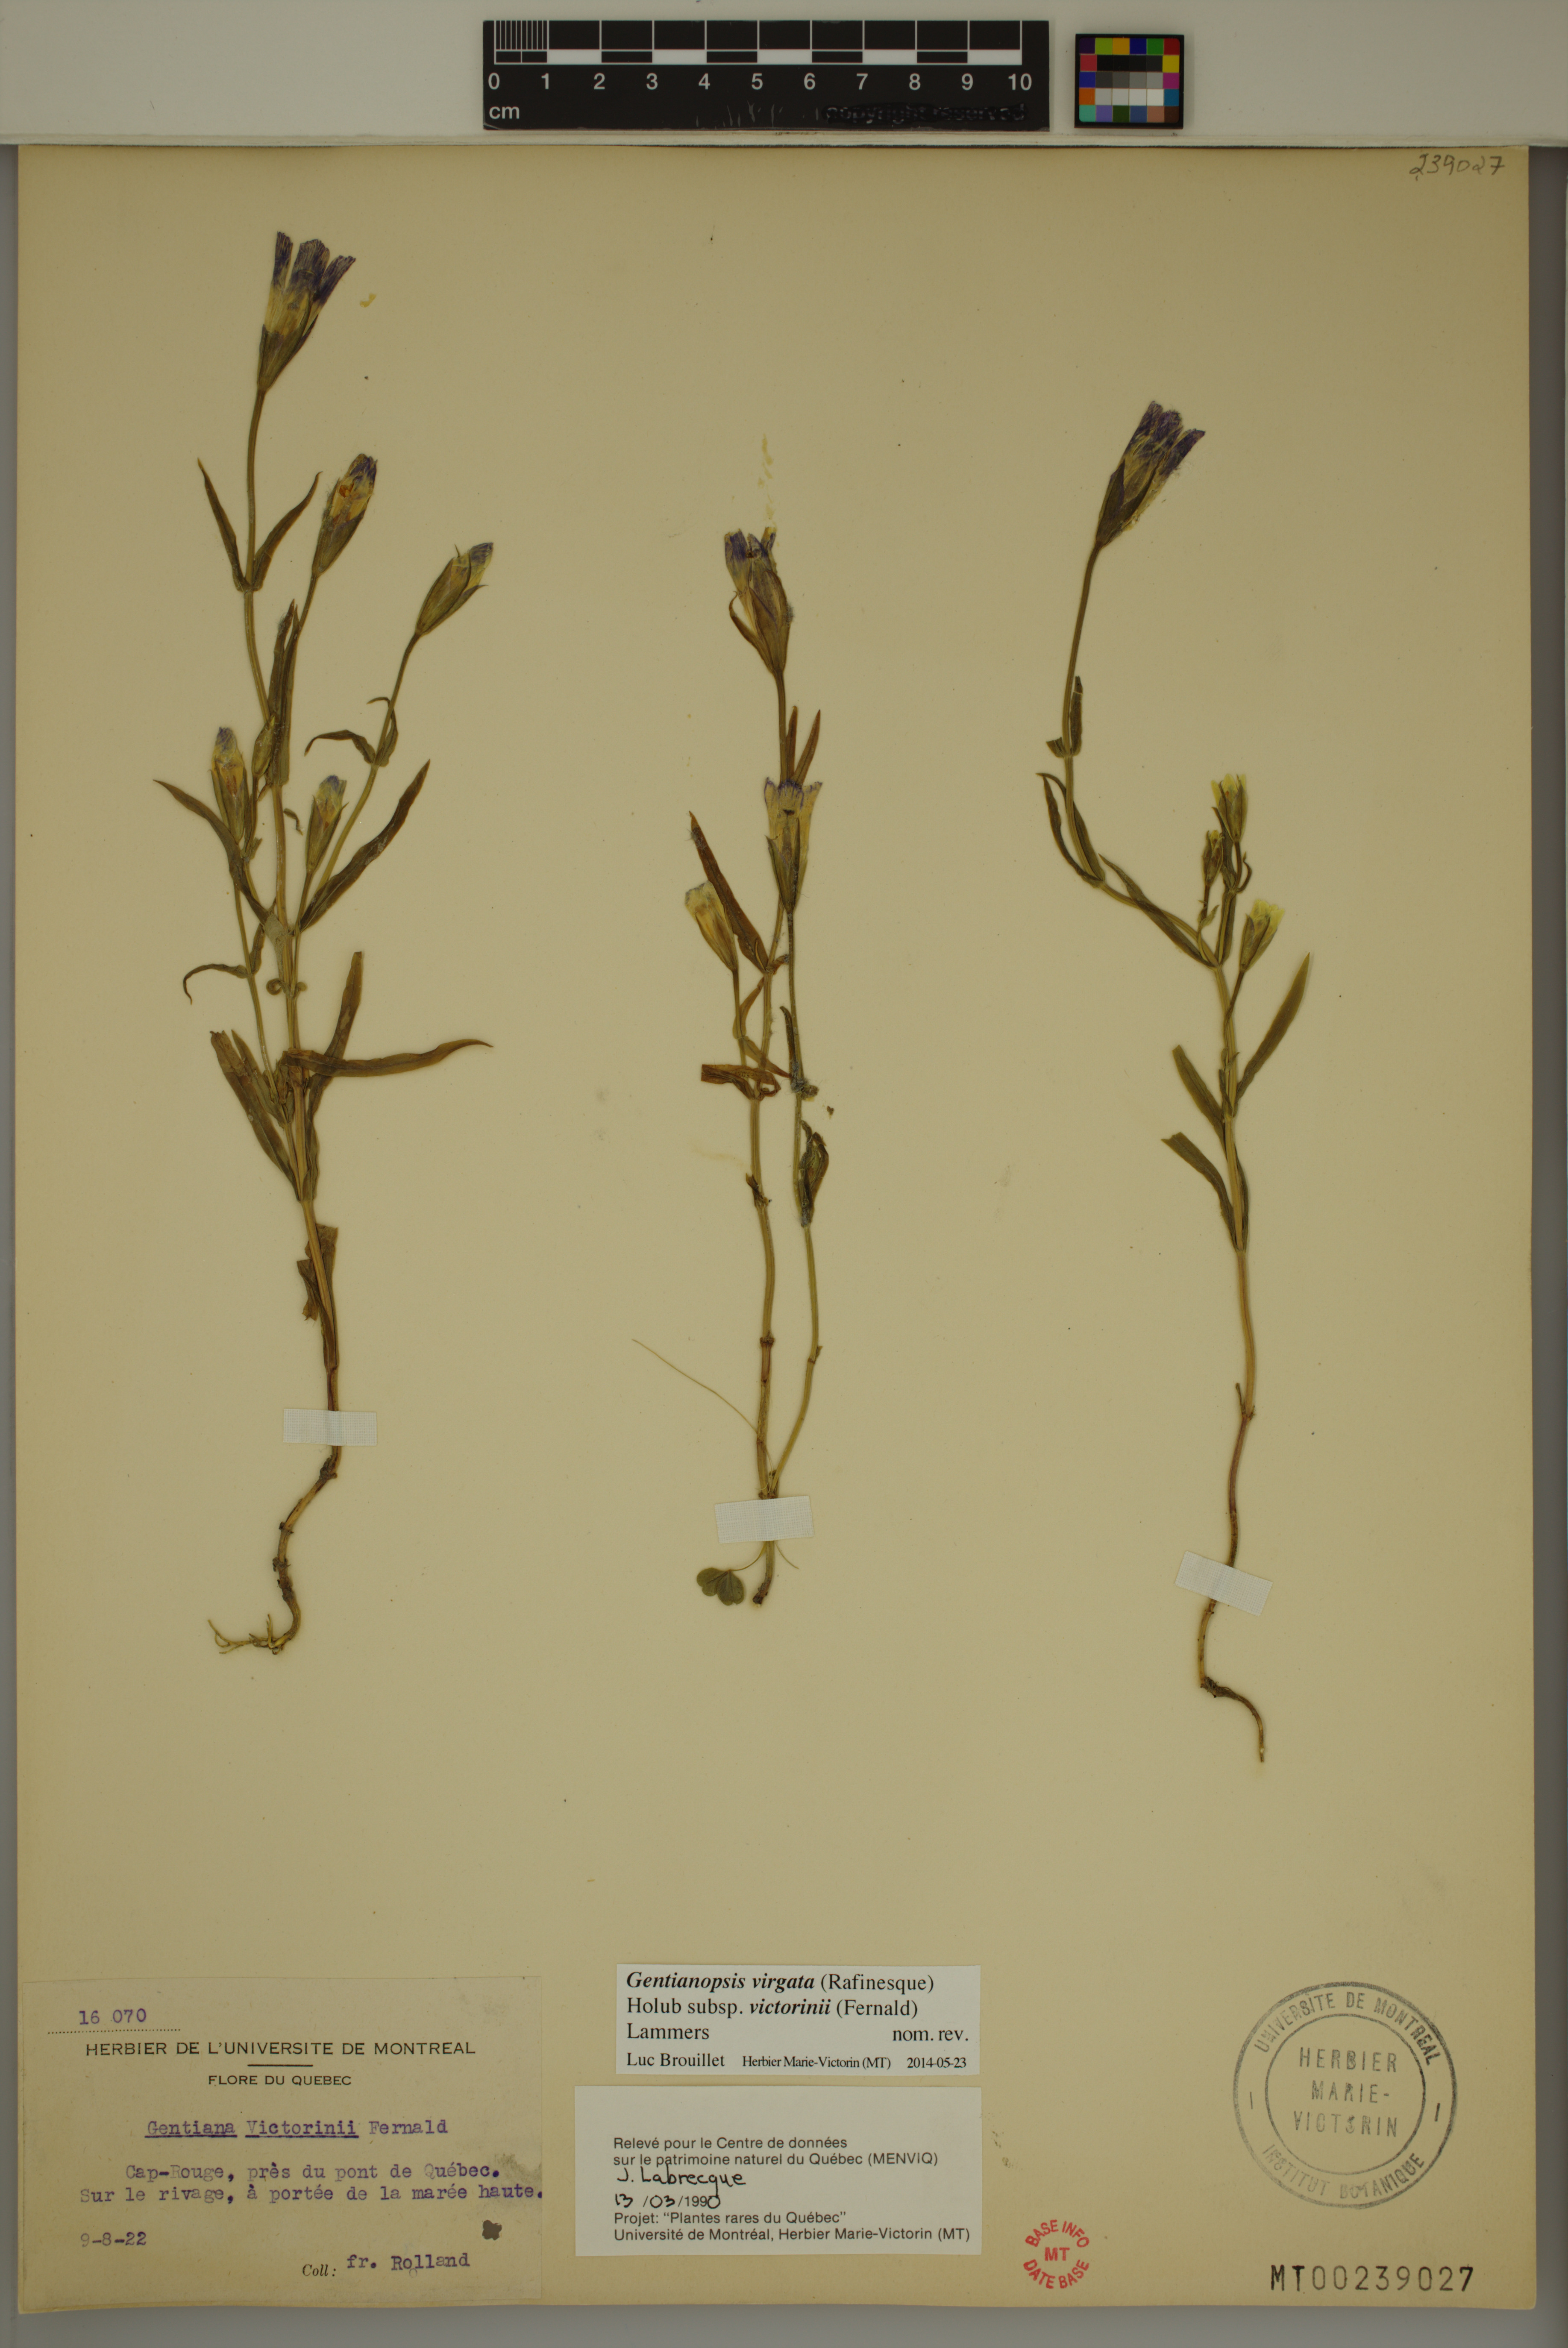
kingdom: Plantae
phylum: Tracheophyta
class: Magnoliopsida
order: Gentianales
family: Gentianaceae
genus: Gentianopsis
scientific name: Gentianopsis victorinii
